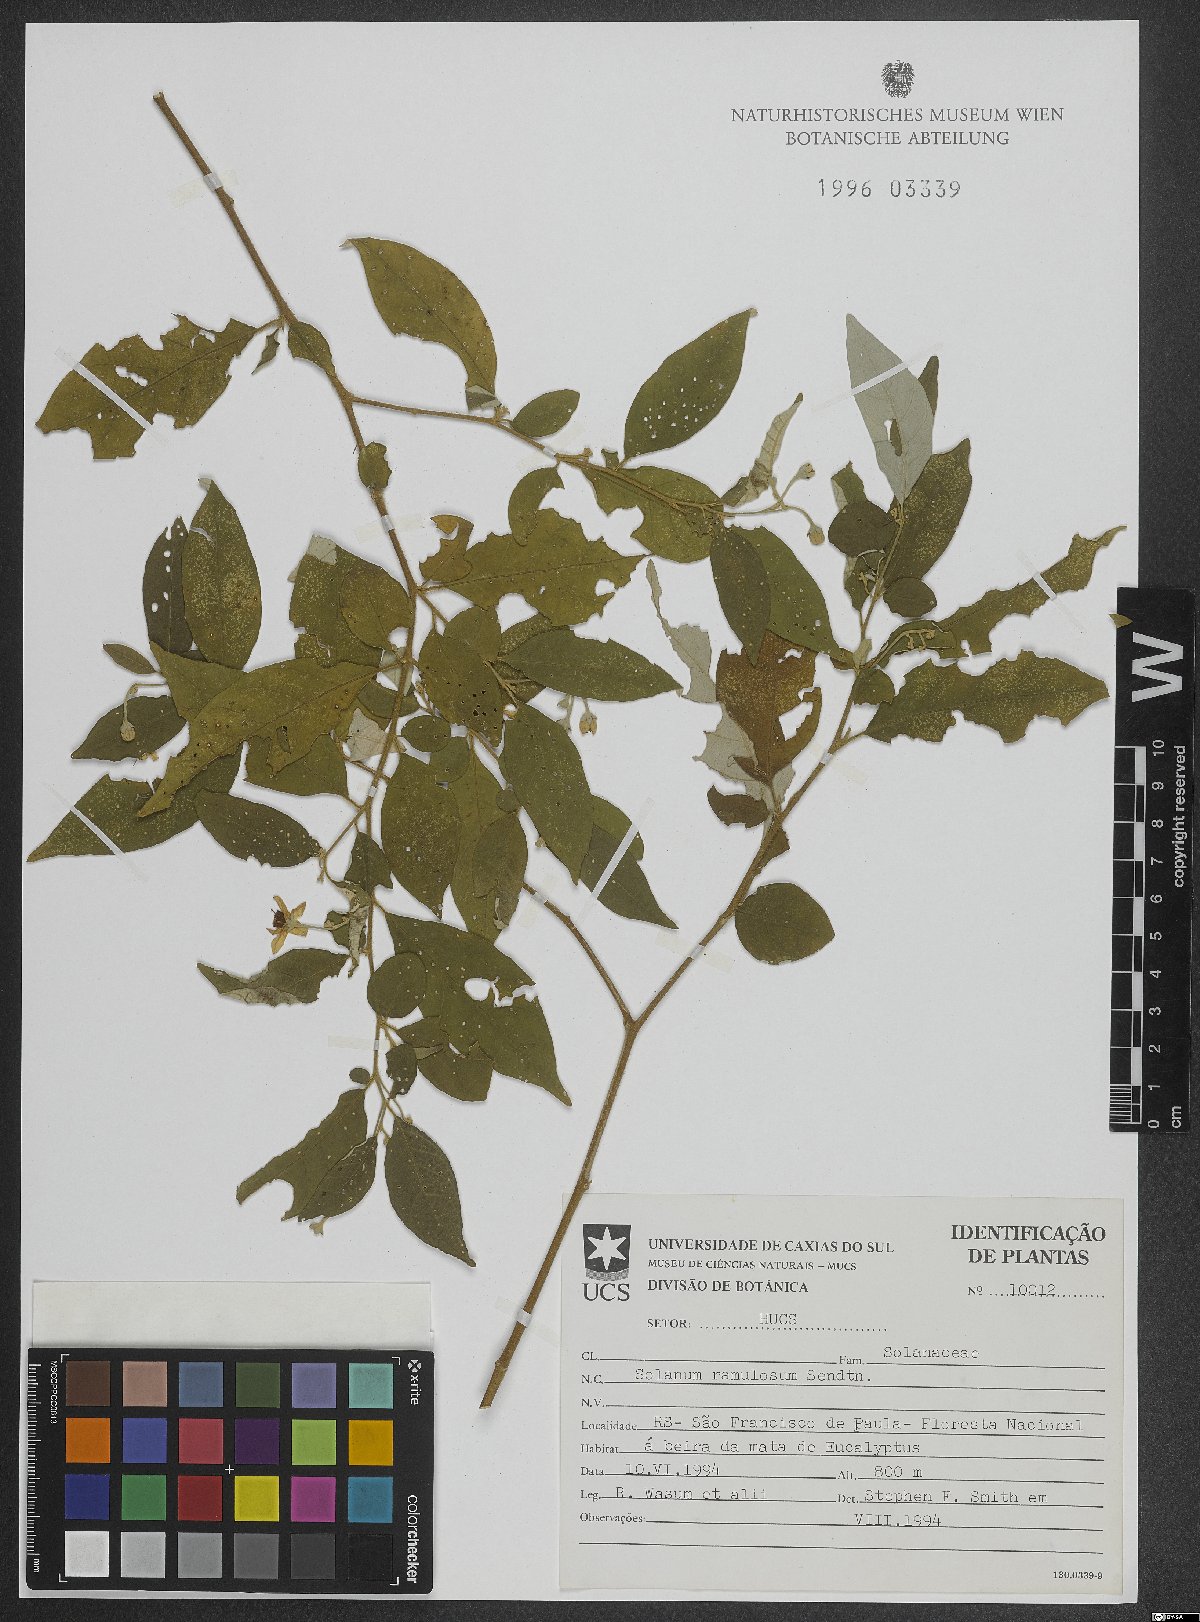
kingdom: Plantae
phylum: Tracheophyta
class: Magnoliopsida
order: Solanales
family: Solanaceae
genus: Solanum
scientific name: Solanum ramulosum
